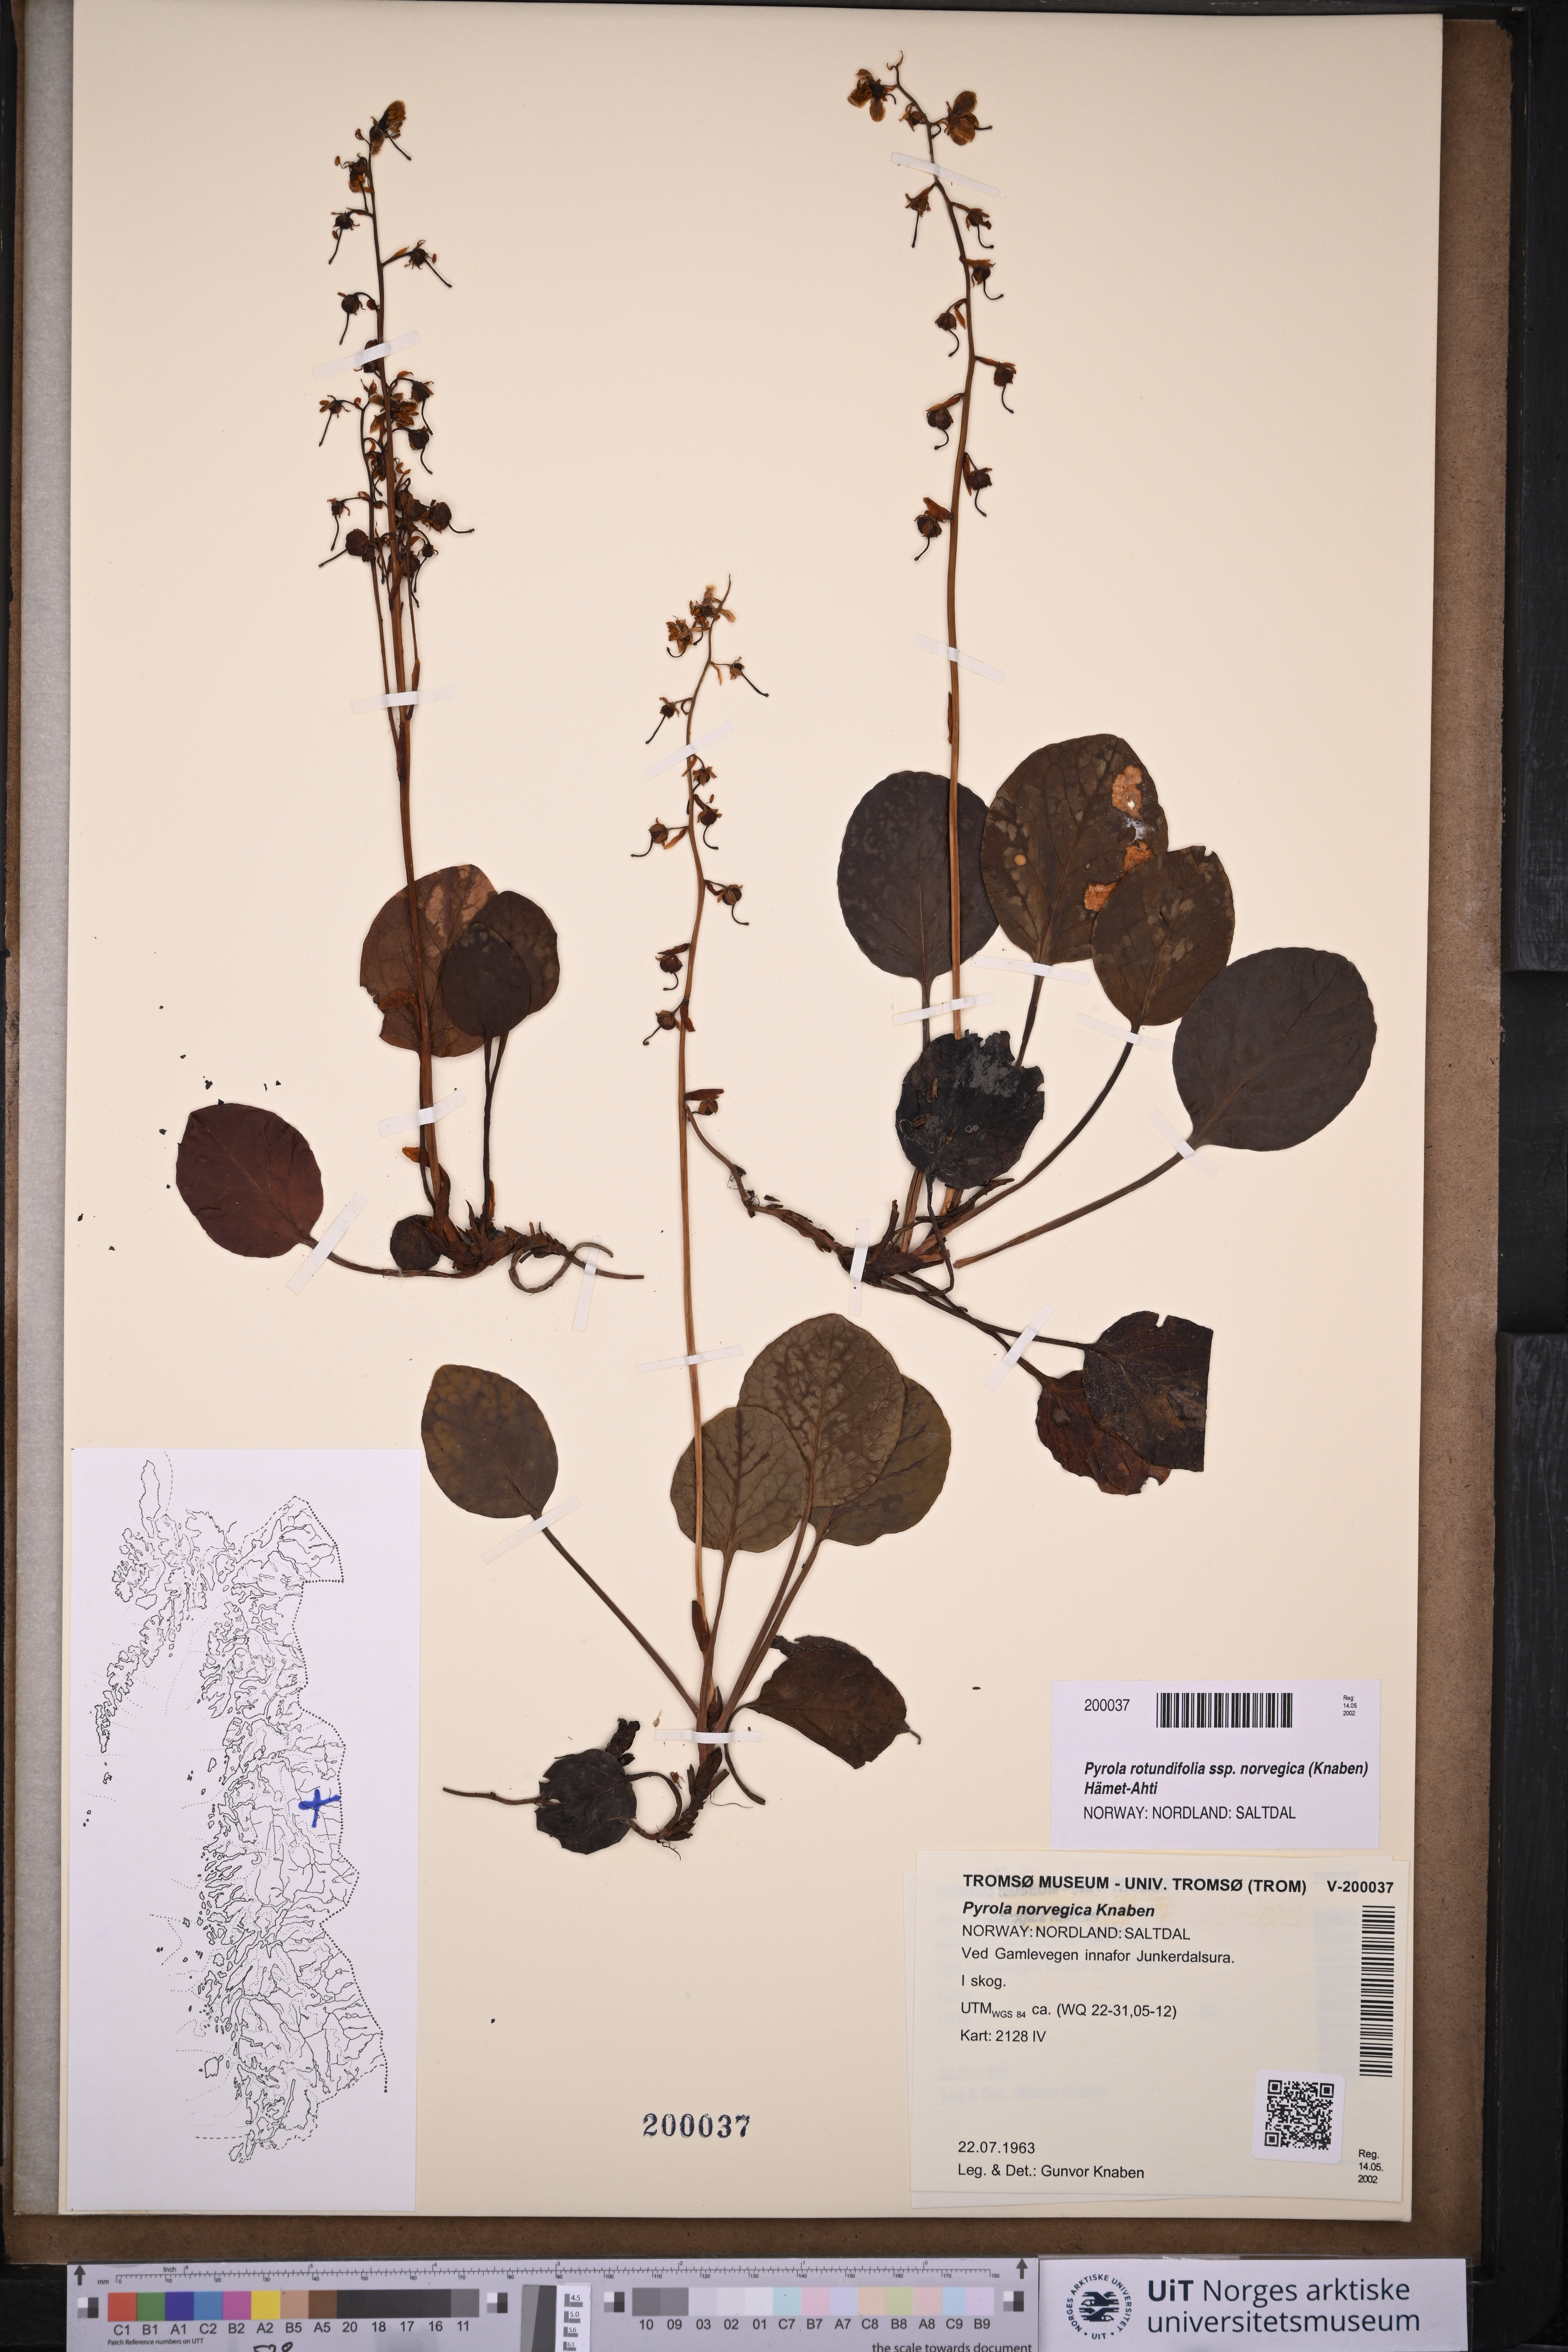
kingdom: Plantae
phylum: Tracheophyta
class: Magnoliopsida
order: Ericales
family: Ericaceae
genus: Pyrola
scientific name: Pyrola rotundifolia
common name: Round-leaved wintergreen
